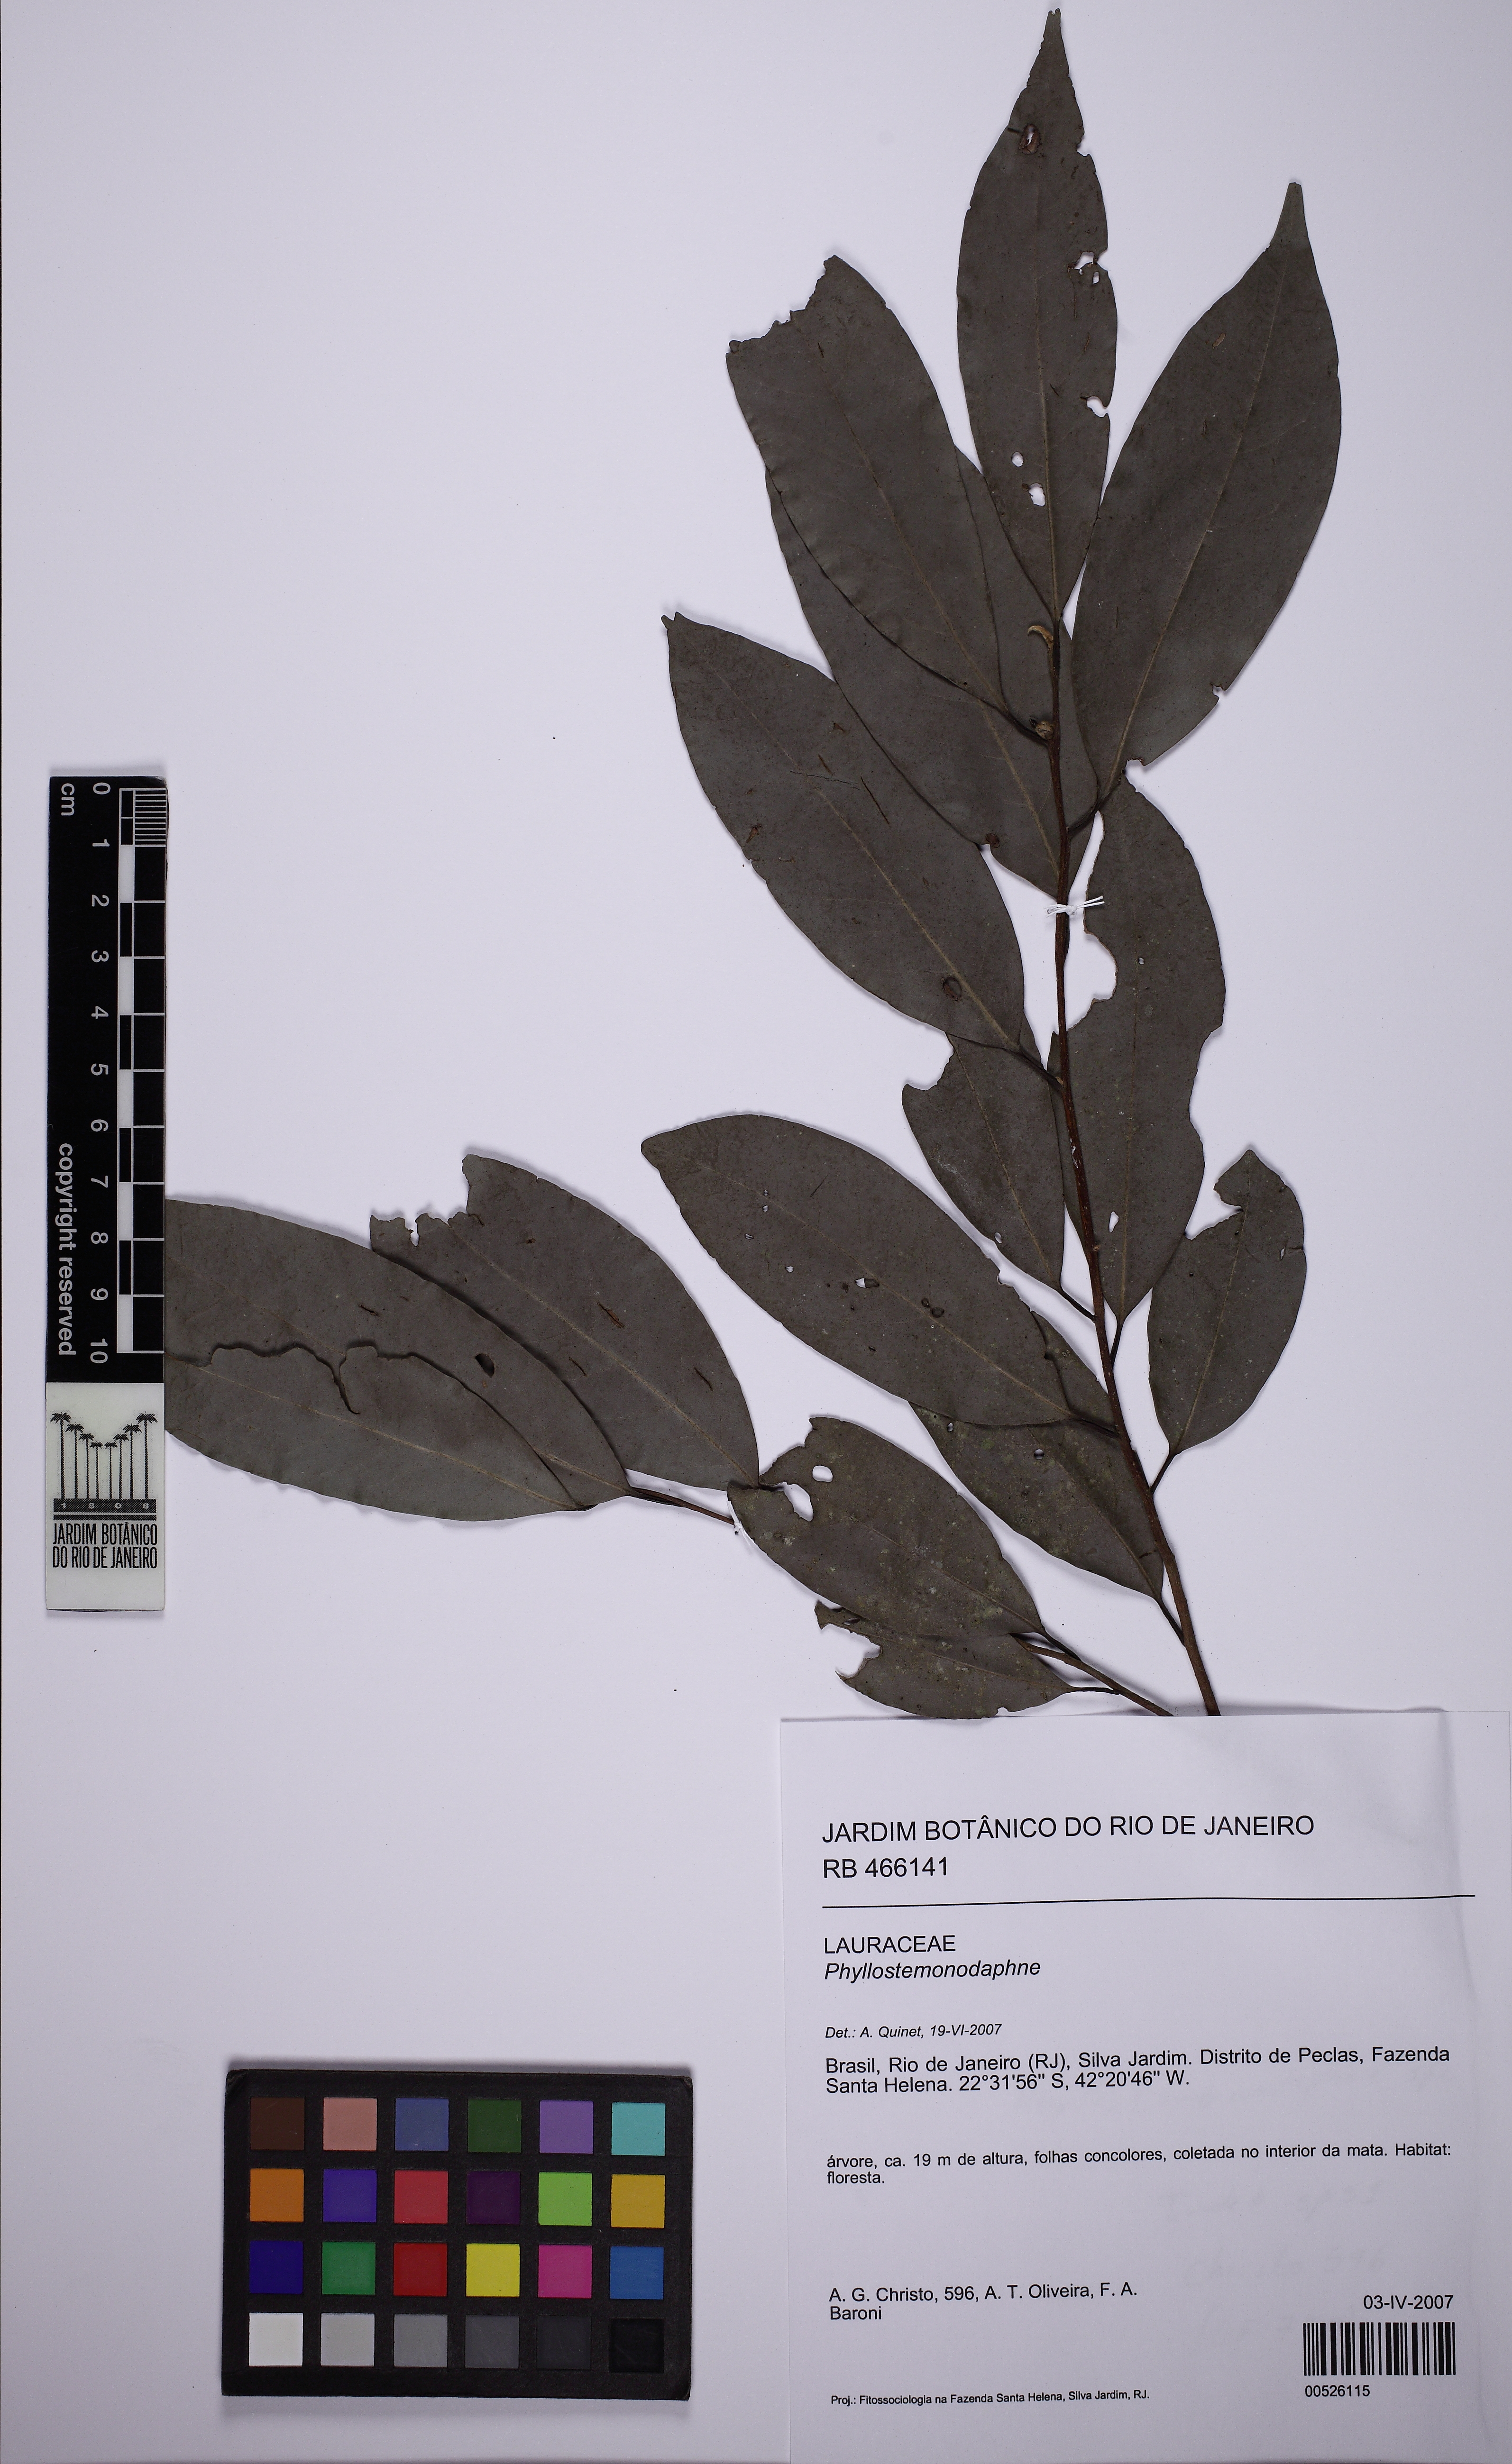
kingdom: Plantae
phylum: Tracheophyta
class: Magnoliopsida
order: Laurales
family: Lauraceae
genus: Phyllostemonodaphne
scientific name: Phyllostemonodaphne
